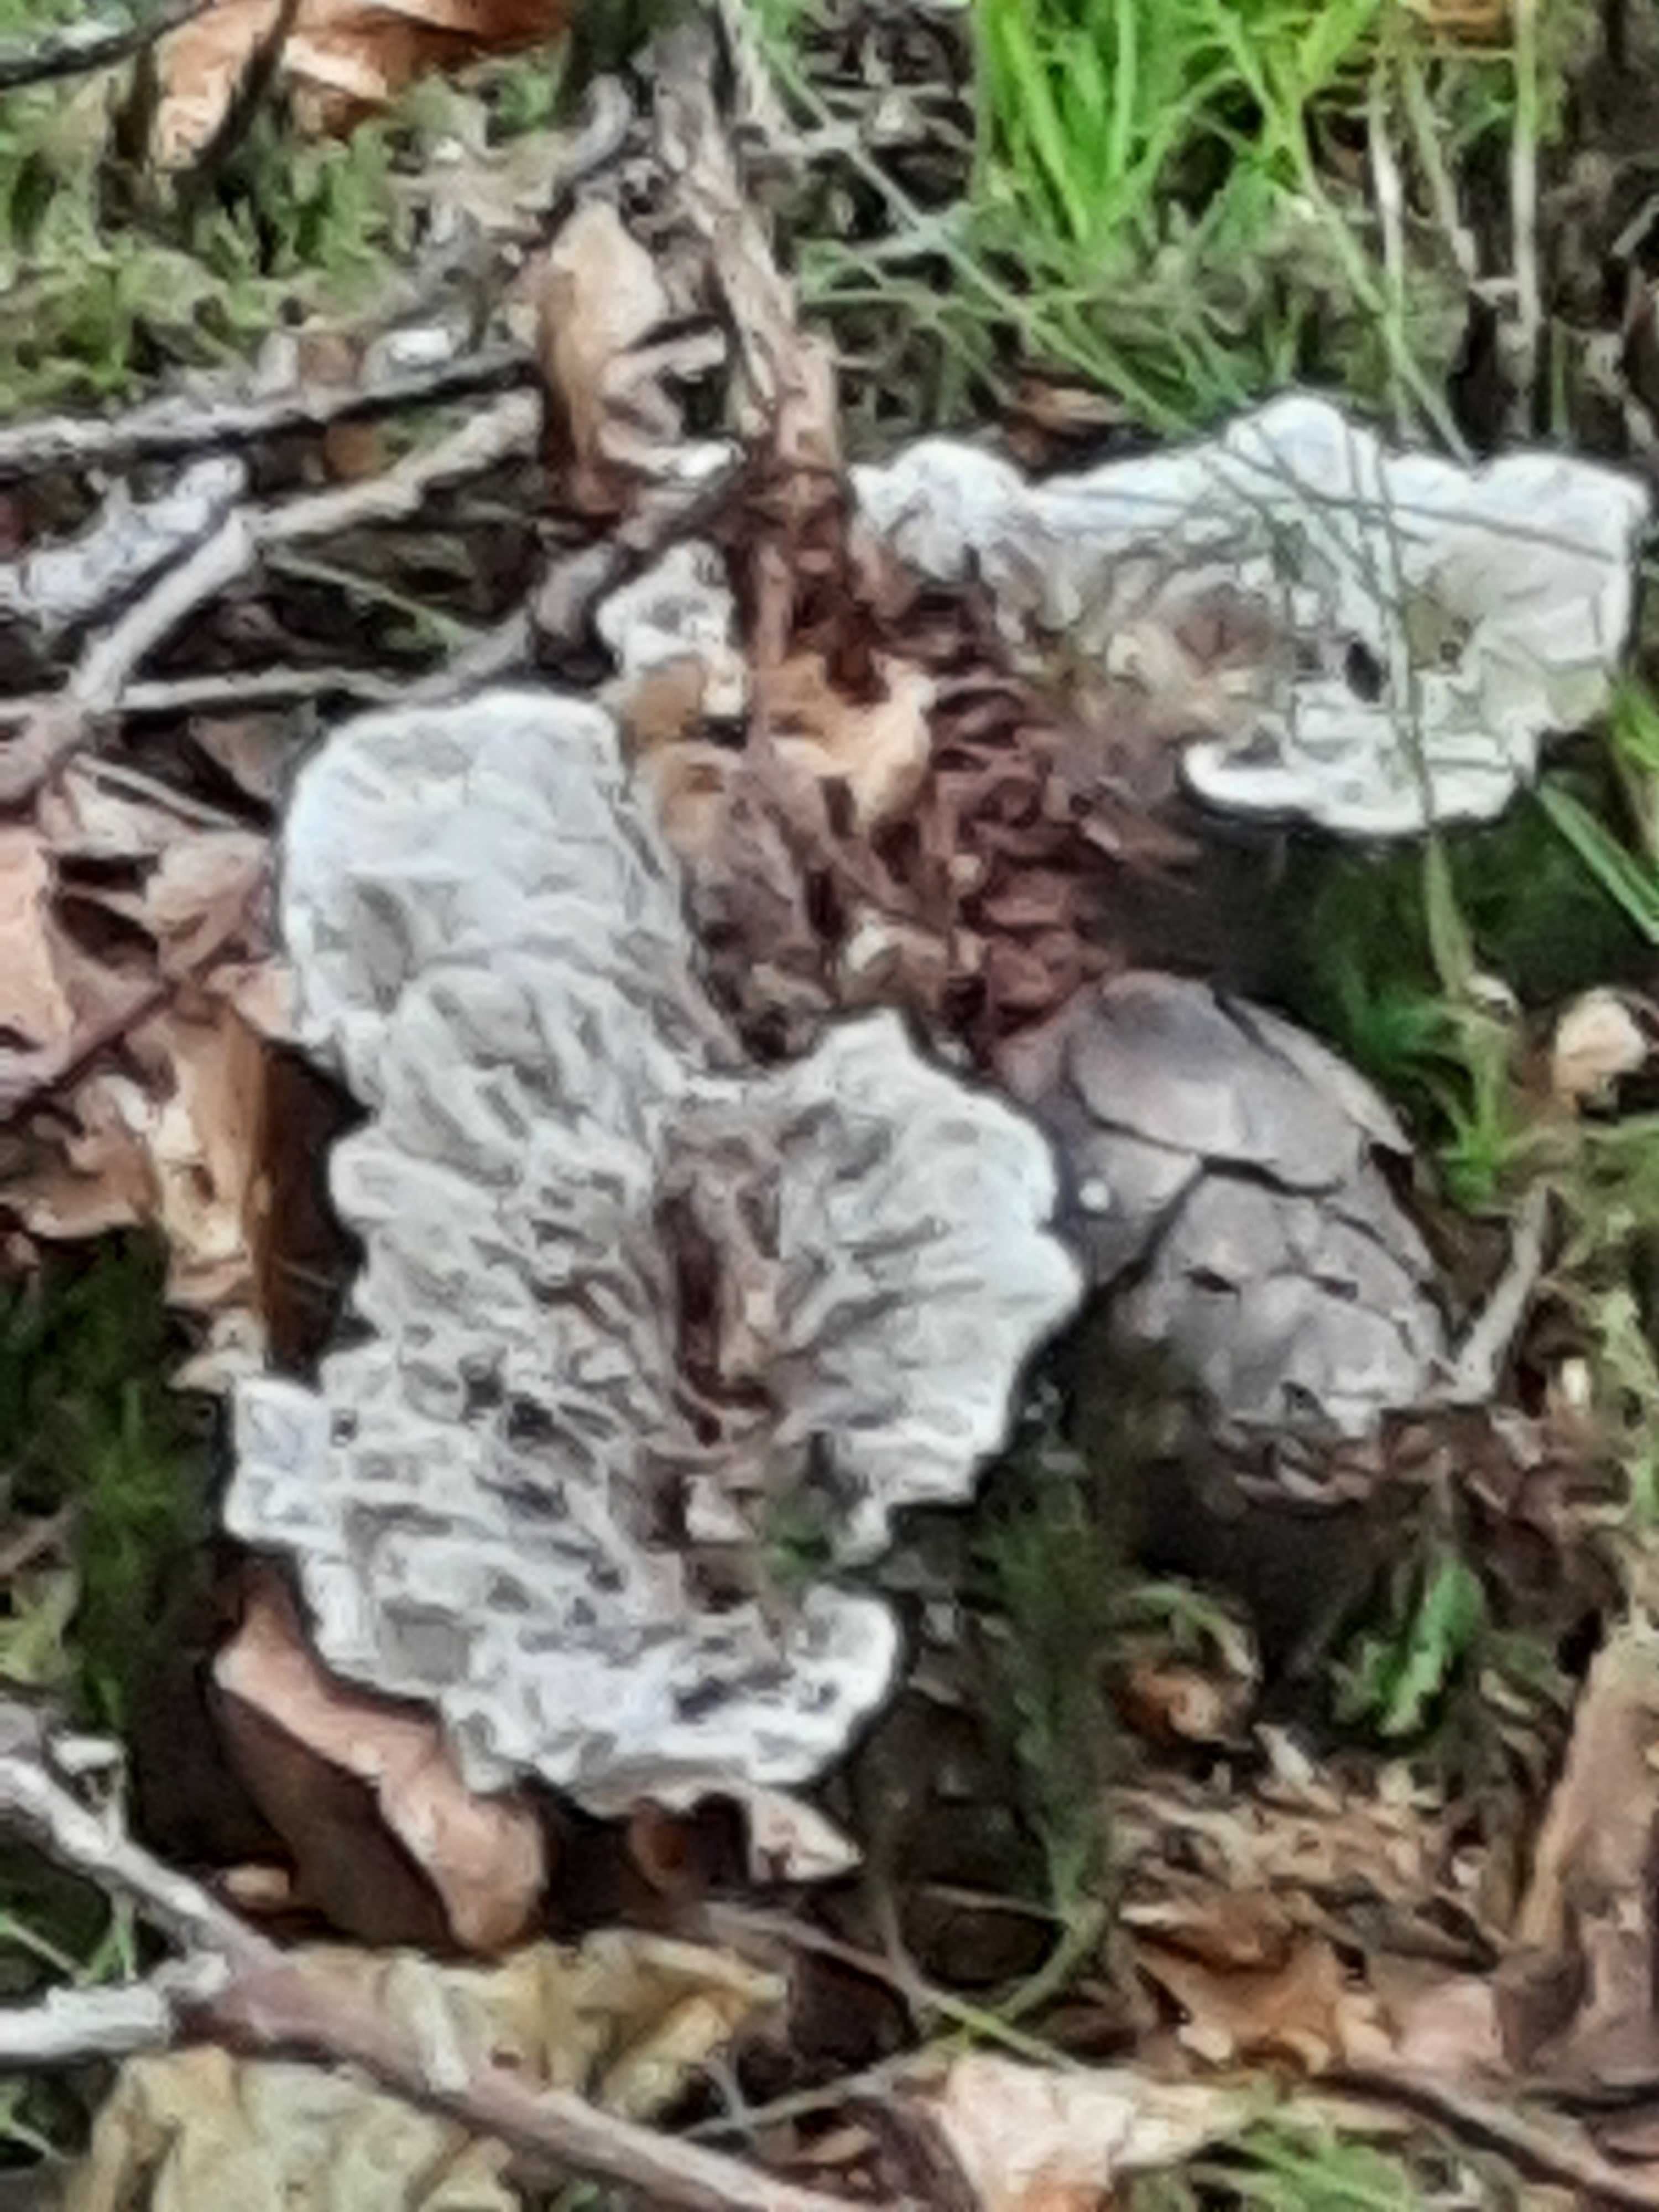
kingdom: Fungi
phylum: Basidiomycota
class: Agaricomycetes
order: Thelephorales
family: Thelephoraceae
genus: Phellodon
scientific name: Phellodon confluens
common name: pjaltet duftpigsvamp
